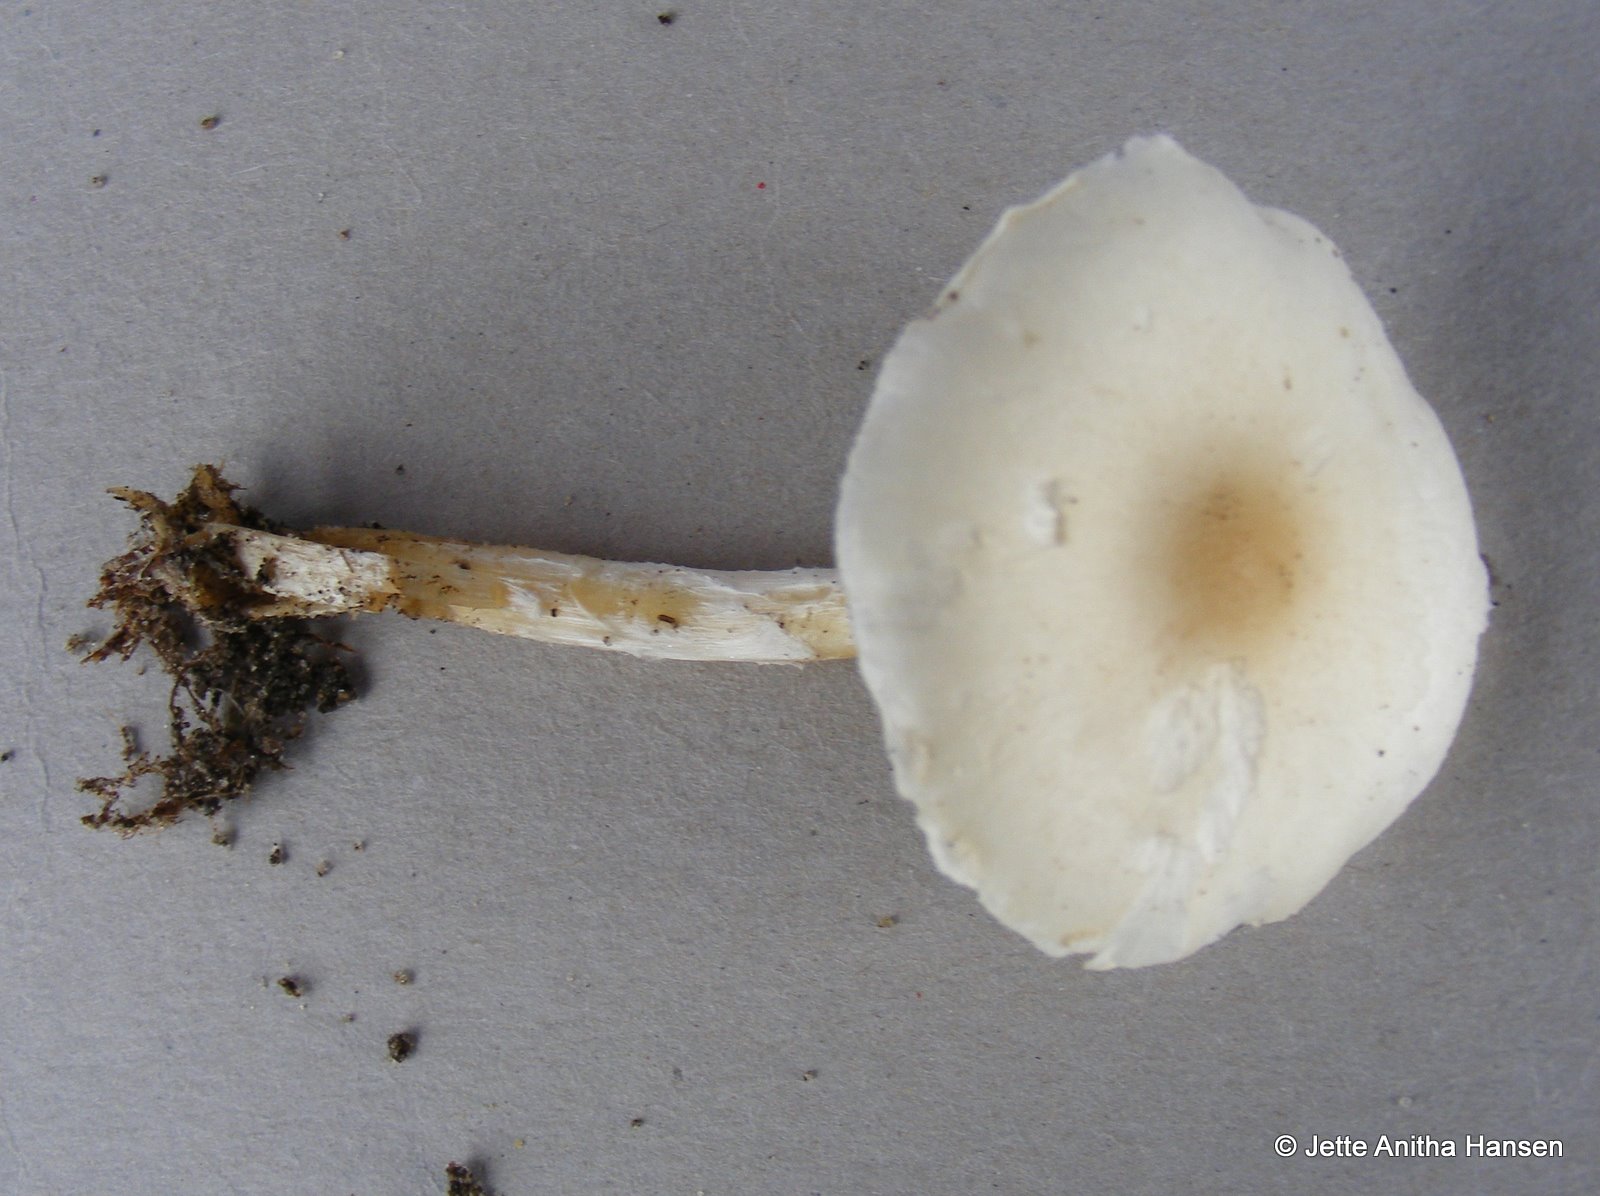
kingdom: Fungi
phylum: Basidiomycota
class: Agaricomycetes
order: Agaricales
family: Agaricaceae
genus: Lepiota
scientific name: Lepiota clypeolaria
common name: flosset parasolhat
